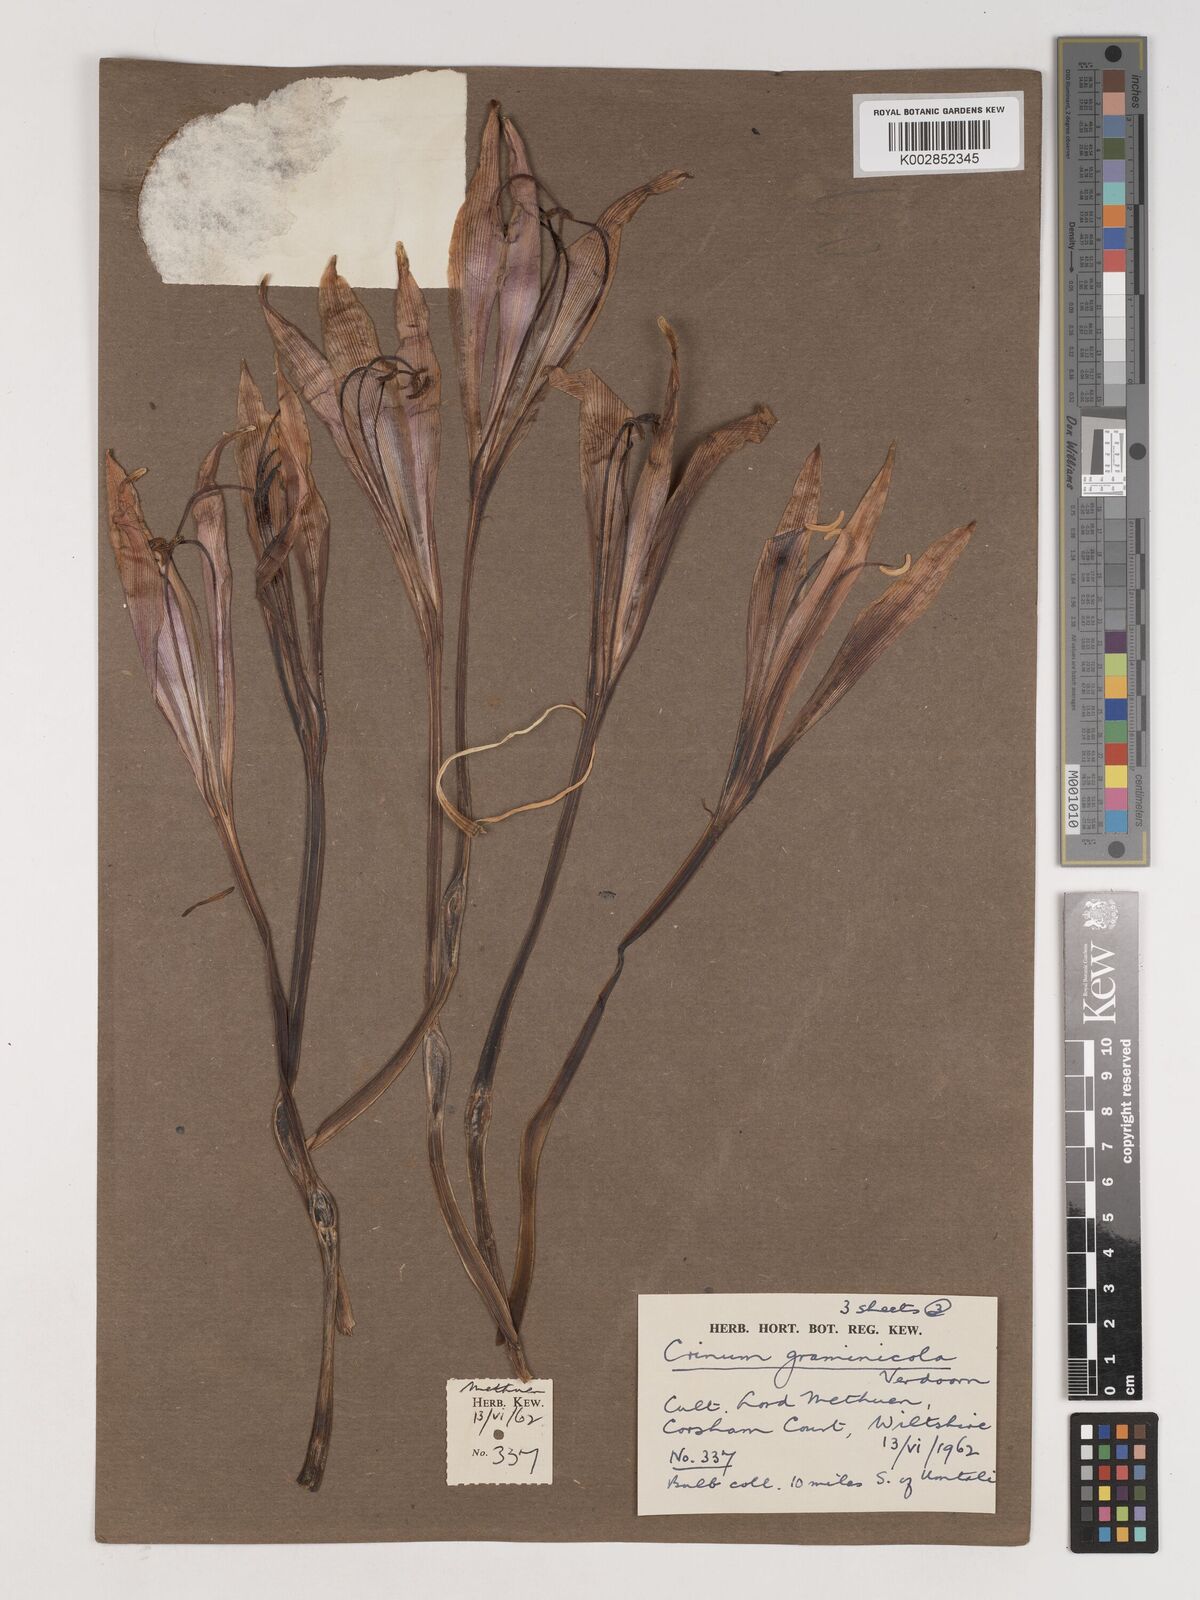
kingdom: Plantae
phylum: Tracheophyta
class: Liliopsida
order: Asparagales
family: Amaryllidaceae
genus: Crinum
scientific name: Crinum graminicola
